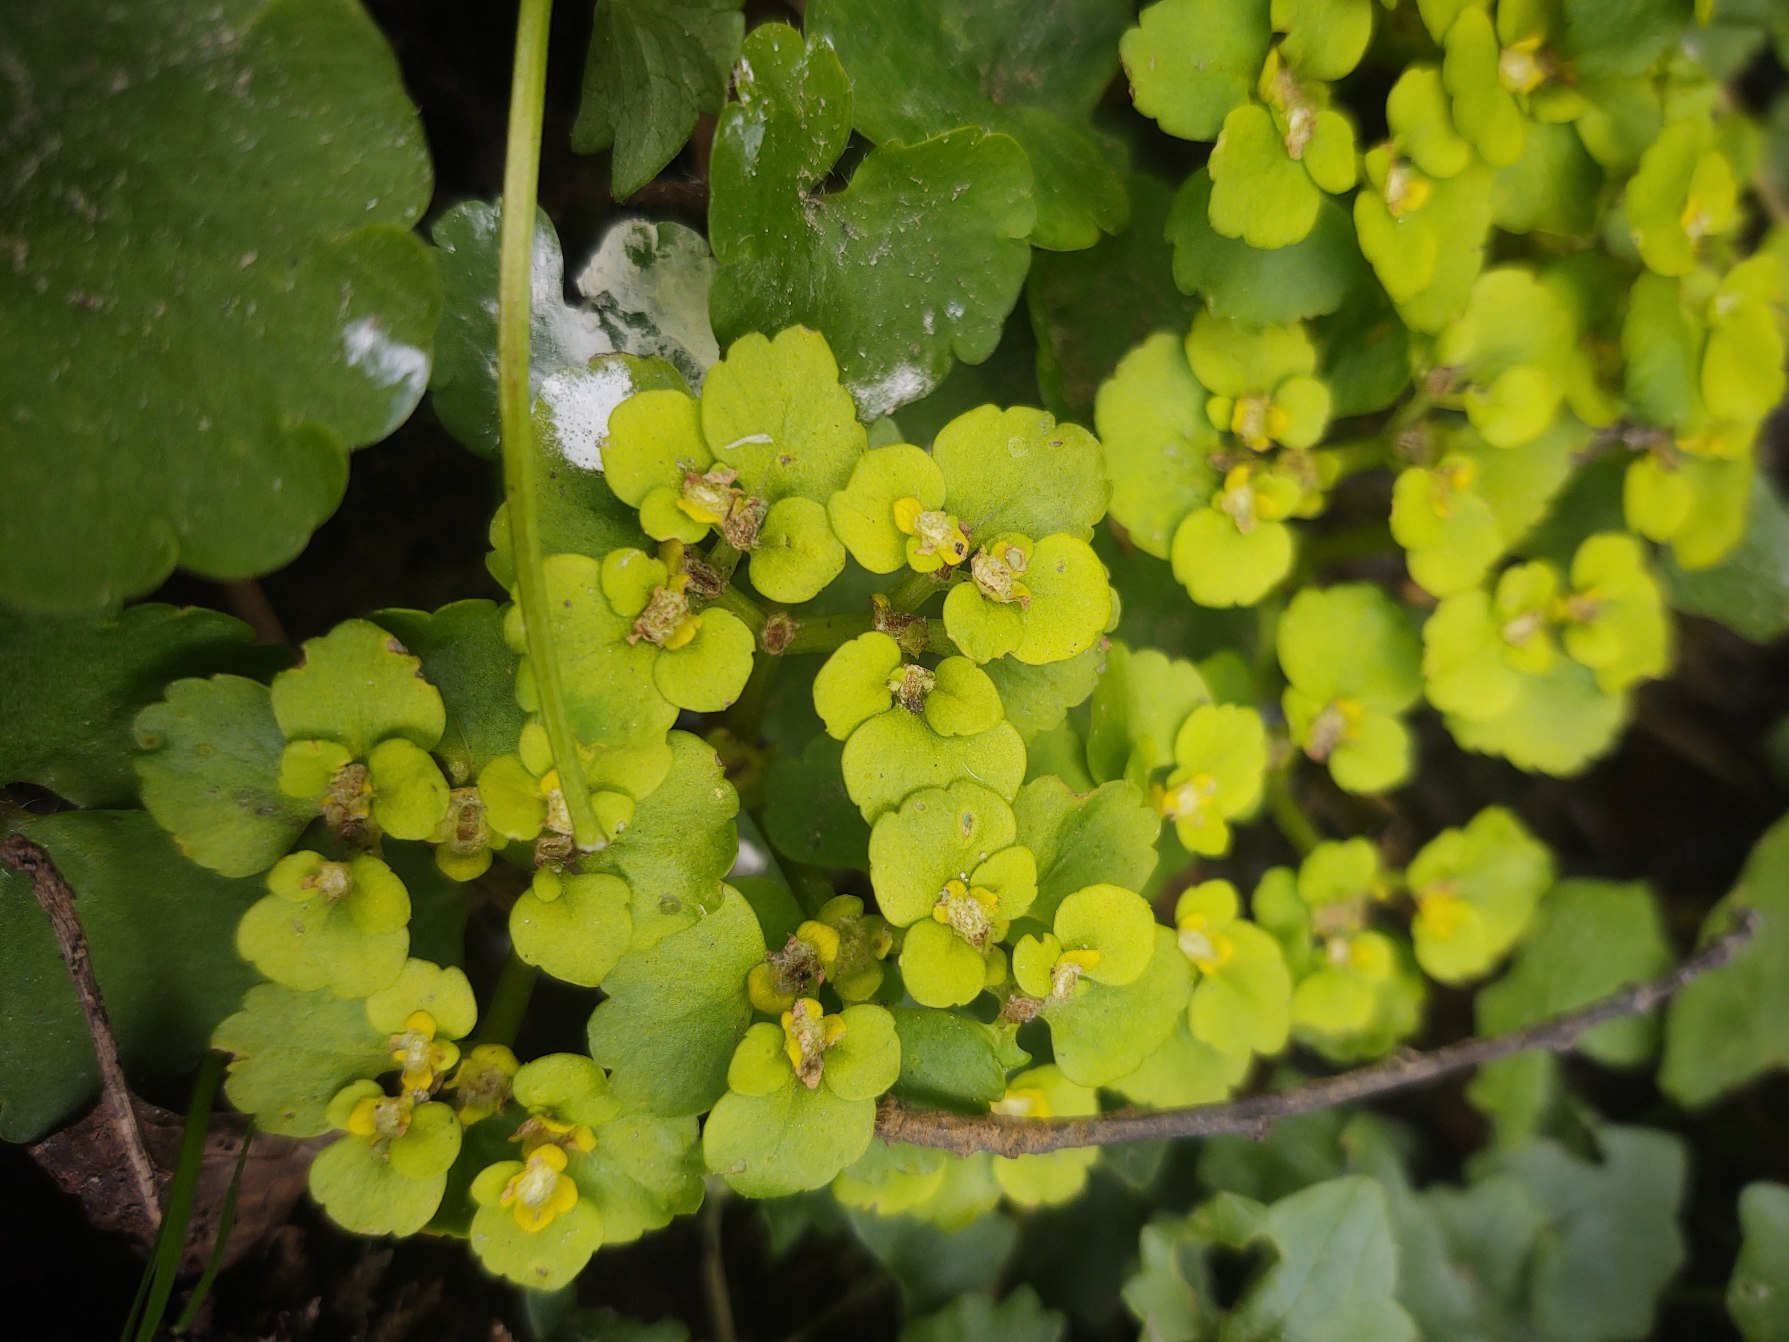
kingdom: Plantae
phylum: Tracheophyta
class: Magnoliopsida
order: Saxifragales
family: Saxifragaceae
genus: Chrysosplenium
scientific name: Chrysosplenium alternifolium
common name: Almindelig milturt
